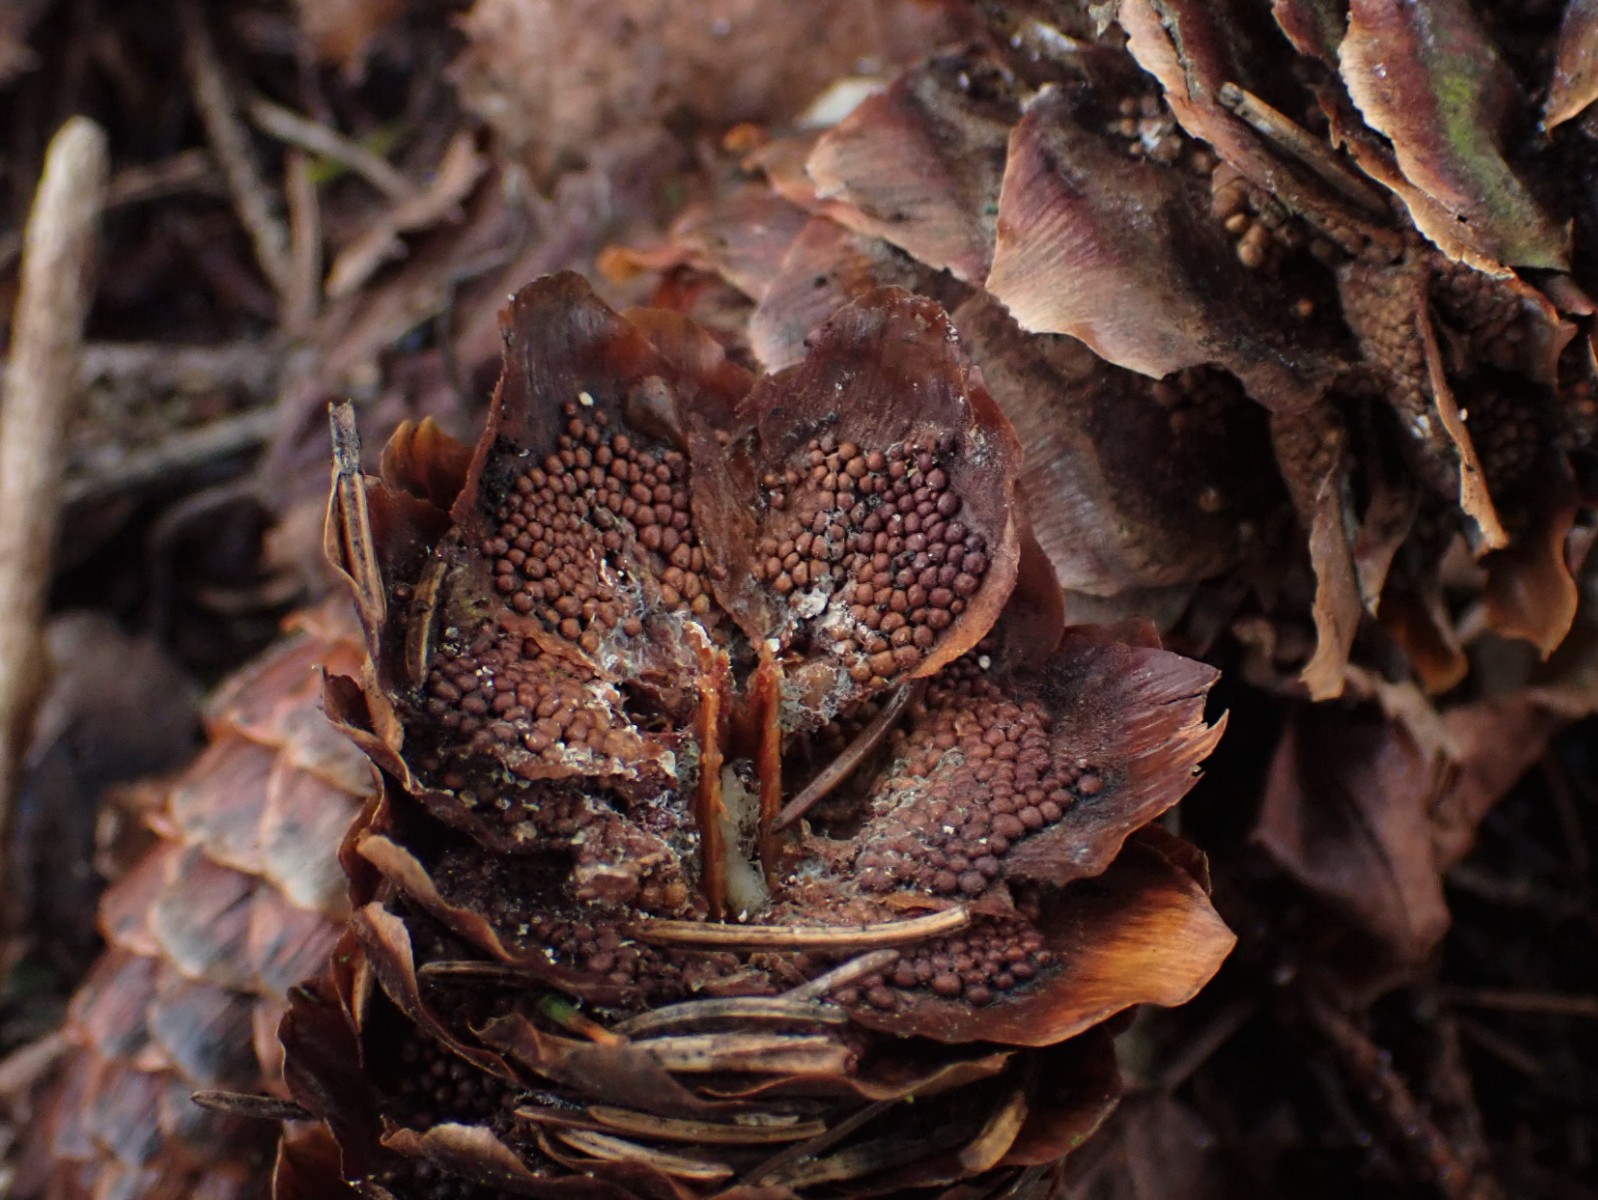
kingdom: Fungi
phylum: Basidiomycota
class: Pucciniomycetes
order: Pucciniales
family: Pucciniastraceae
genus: Thekopsora
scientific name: Thekopsora areolata
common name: grankogle-nålerust
